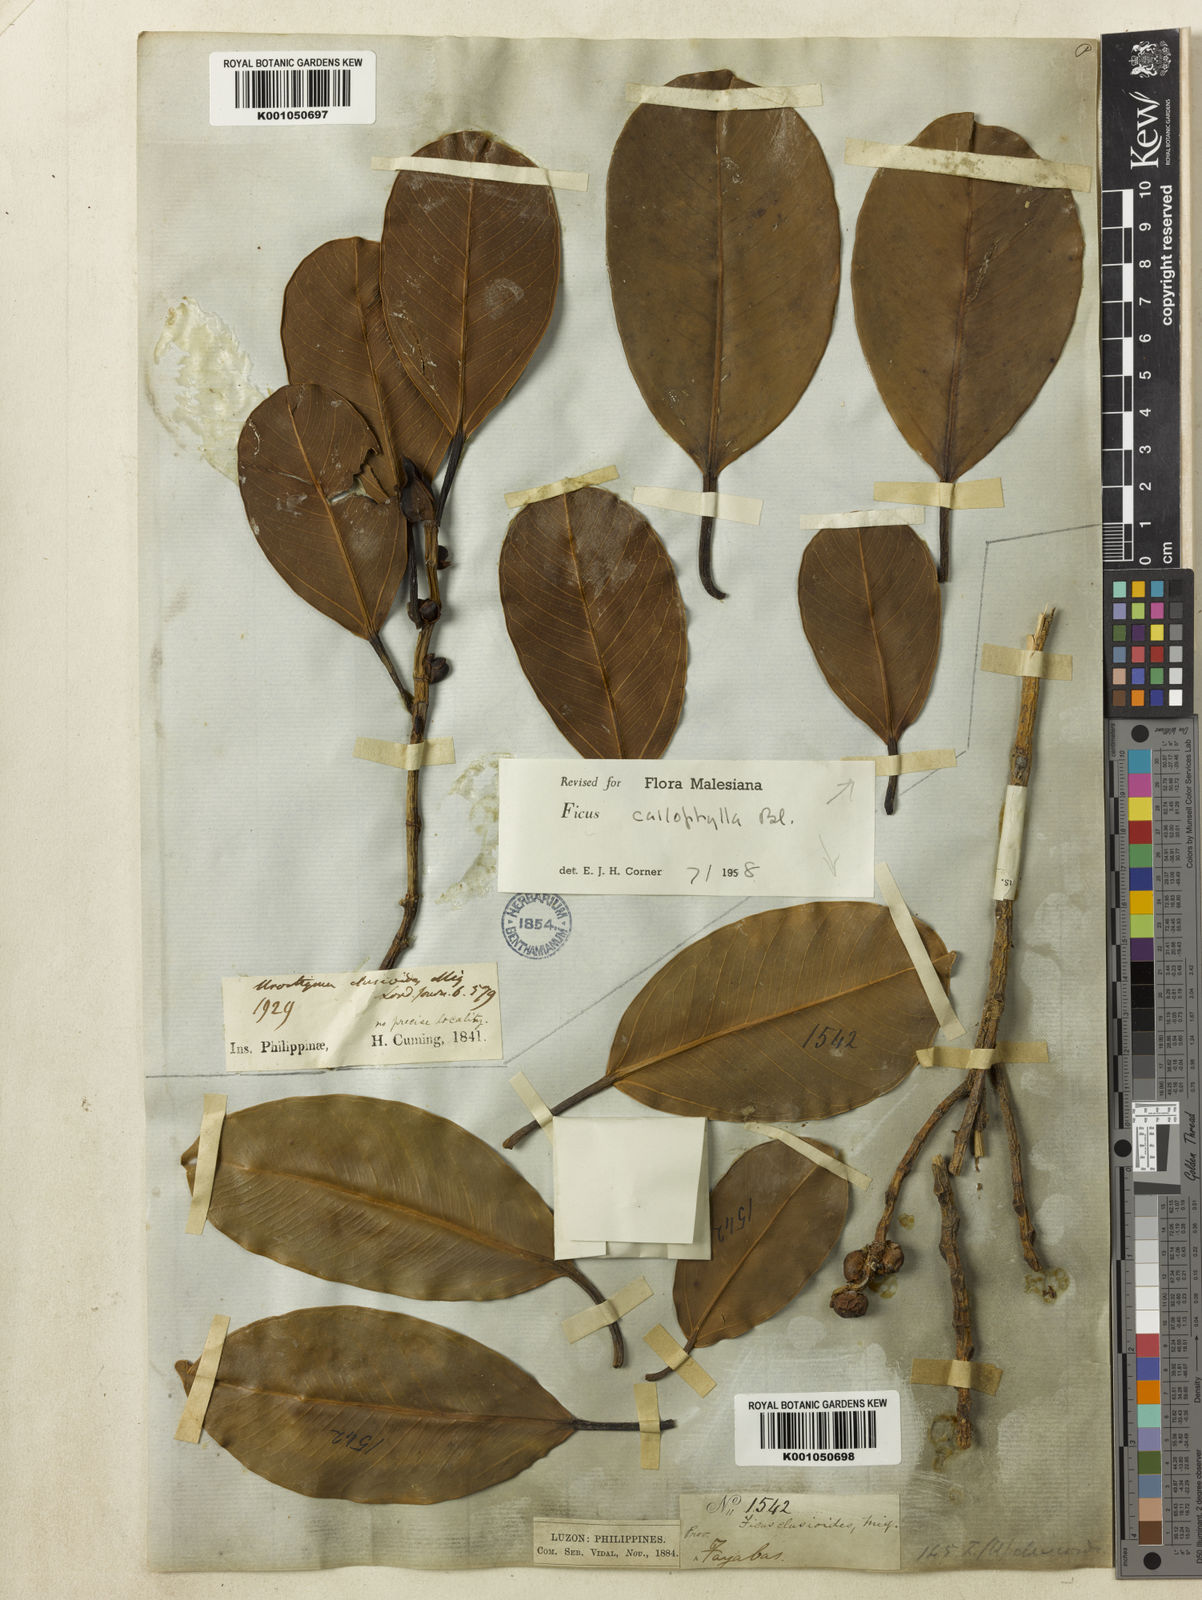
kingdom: Plantae
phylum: Tracheophyta
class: Magnoliopsida
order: Rosales
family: Moraceae
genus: Ficus
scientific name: Ficus callophylla
